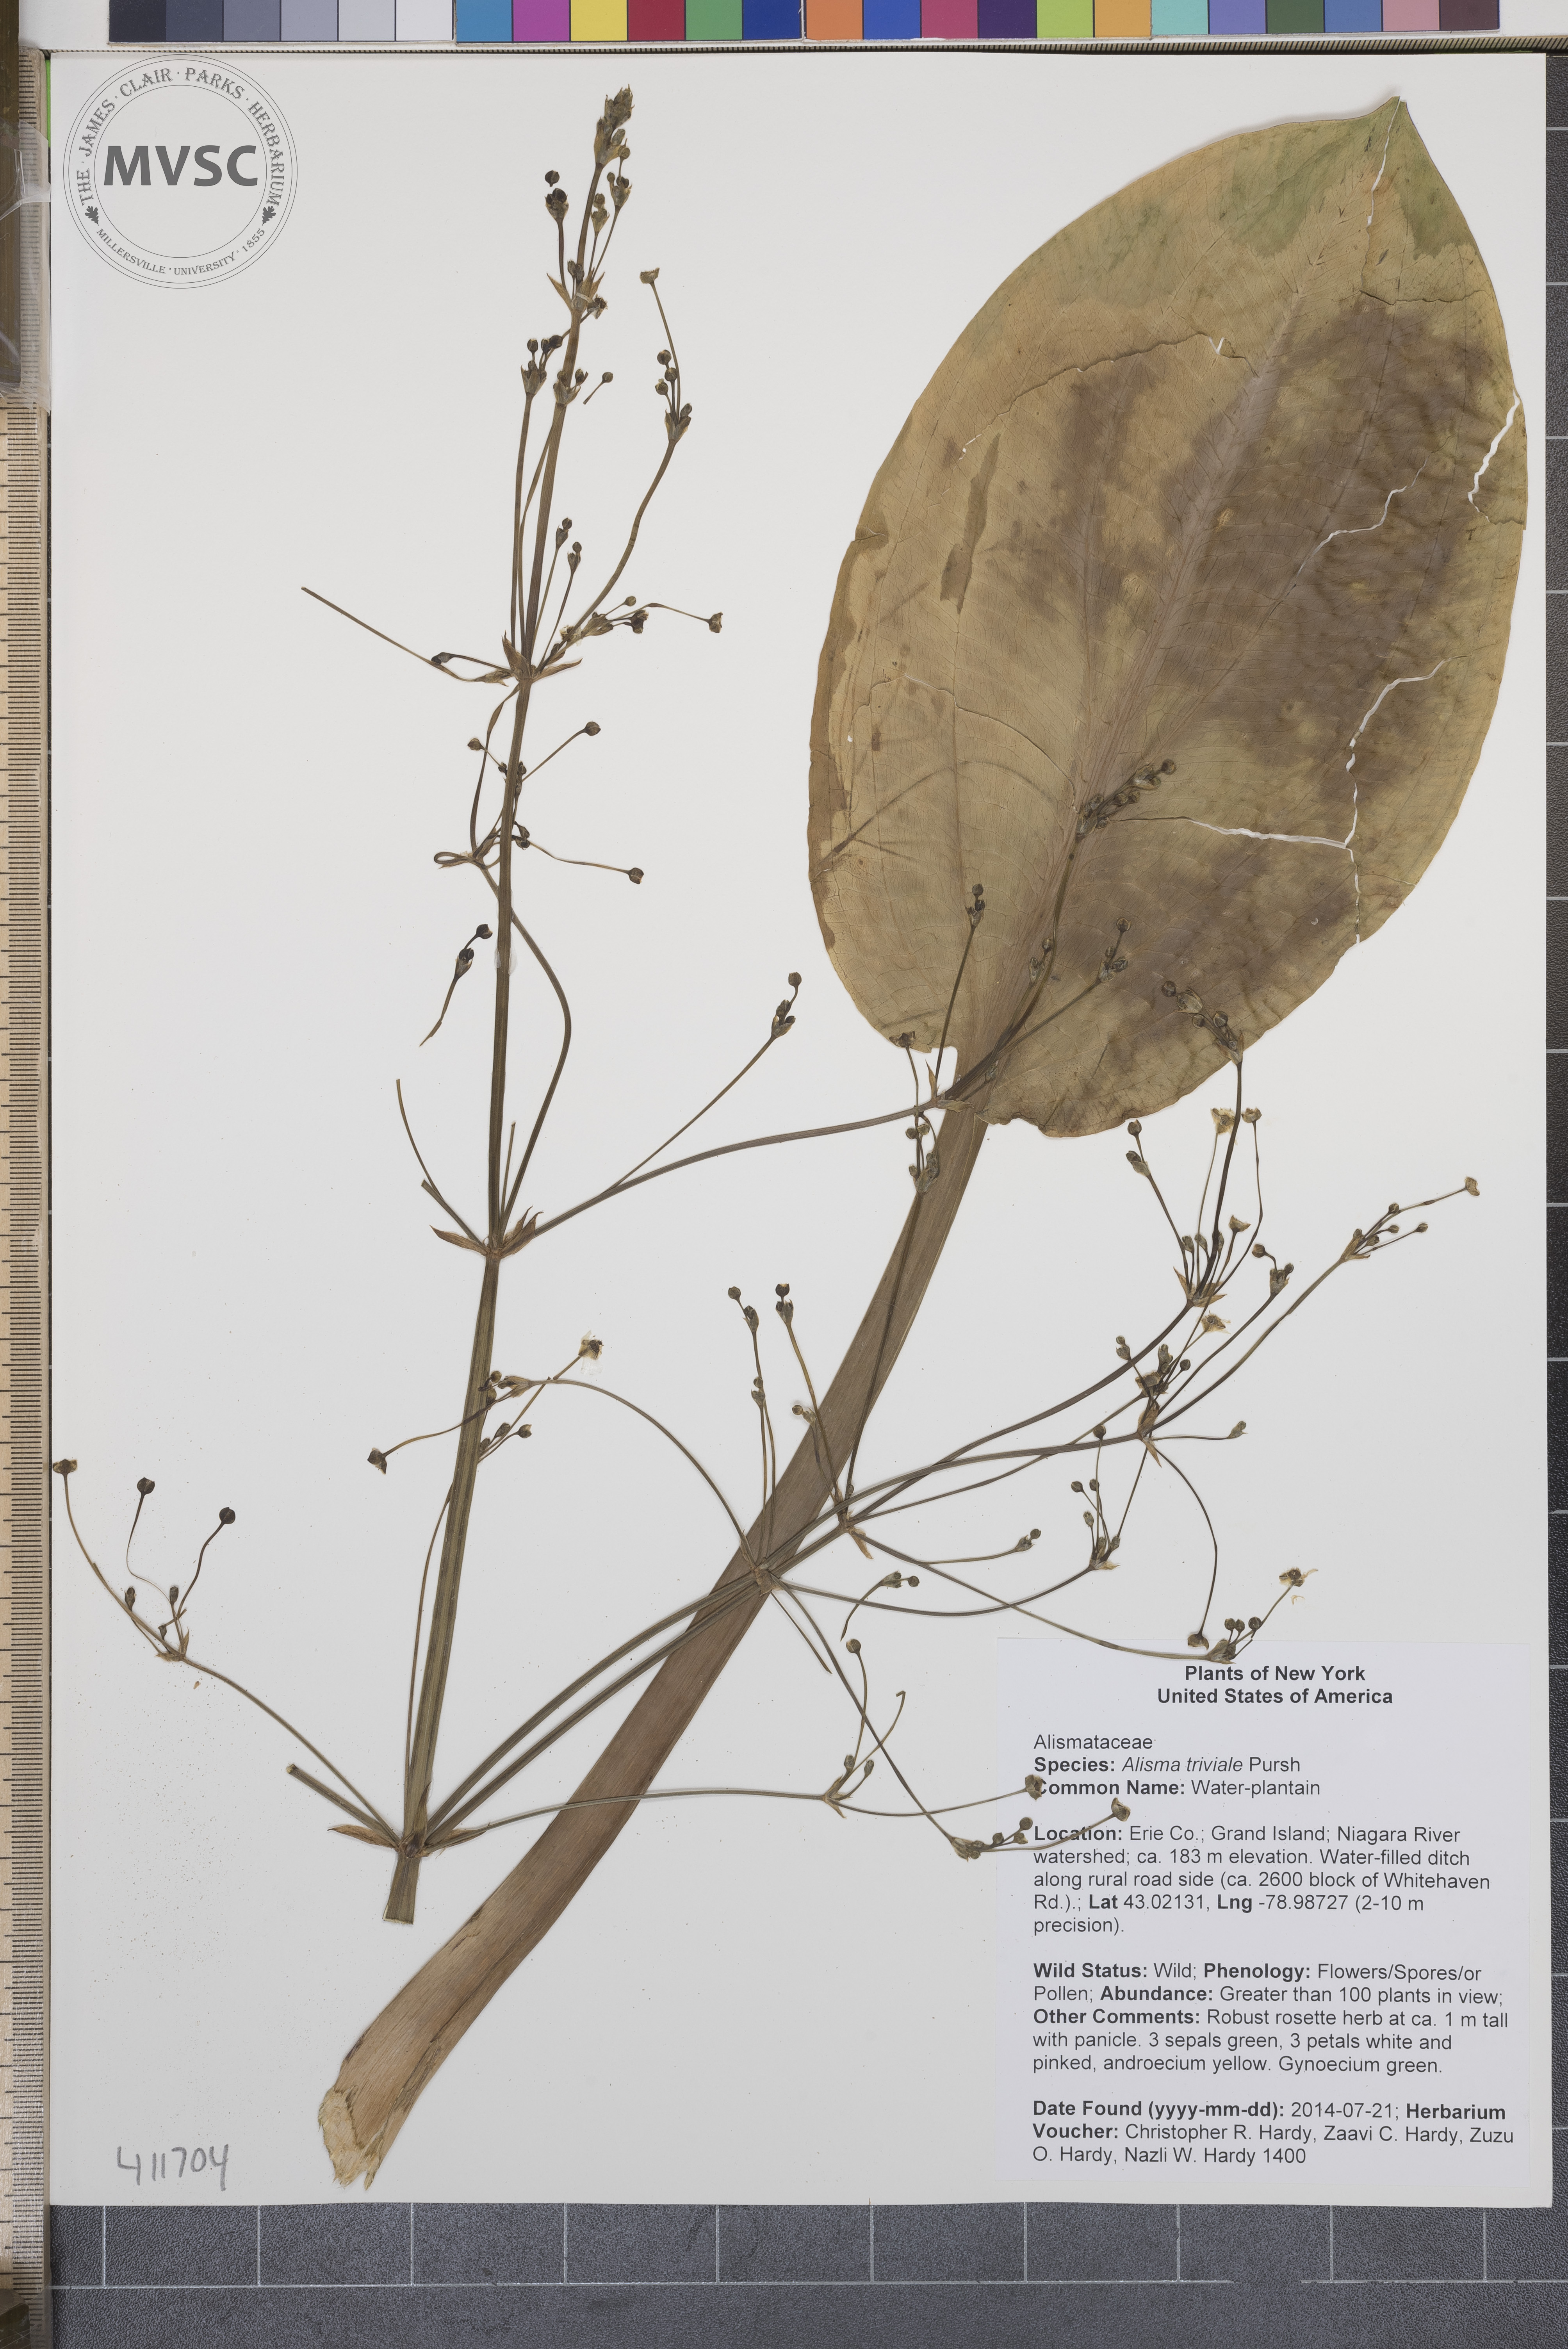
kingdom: Plantae
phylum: Tracheophyta
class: Liliopsida
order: Alismatales
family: Alismataceae
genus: Alisma
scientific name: Alisma triviale
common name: Water-plantain
